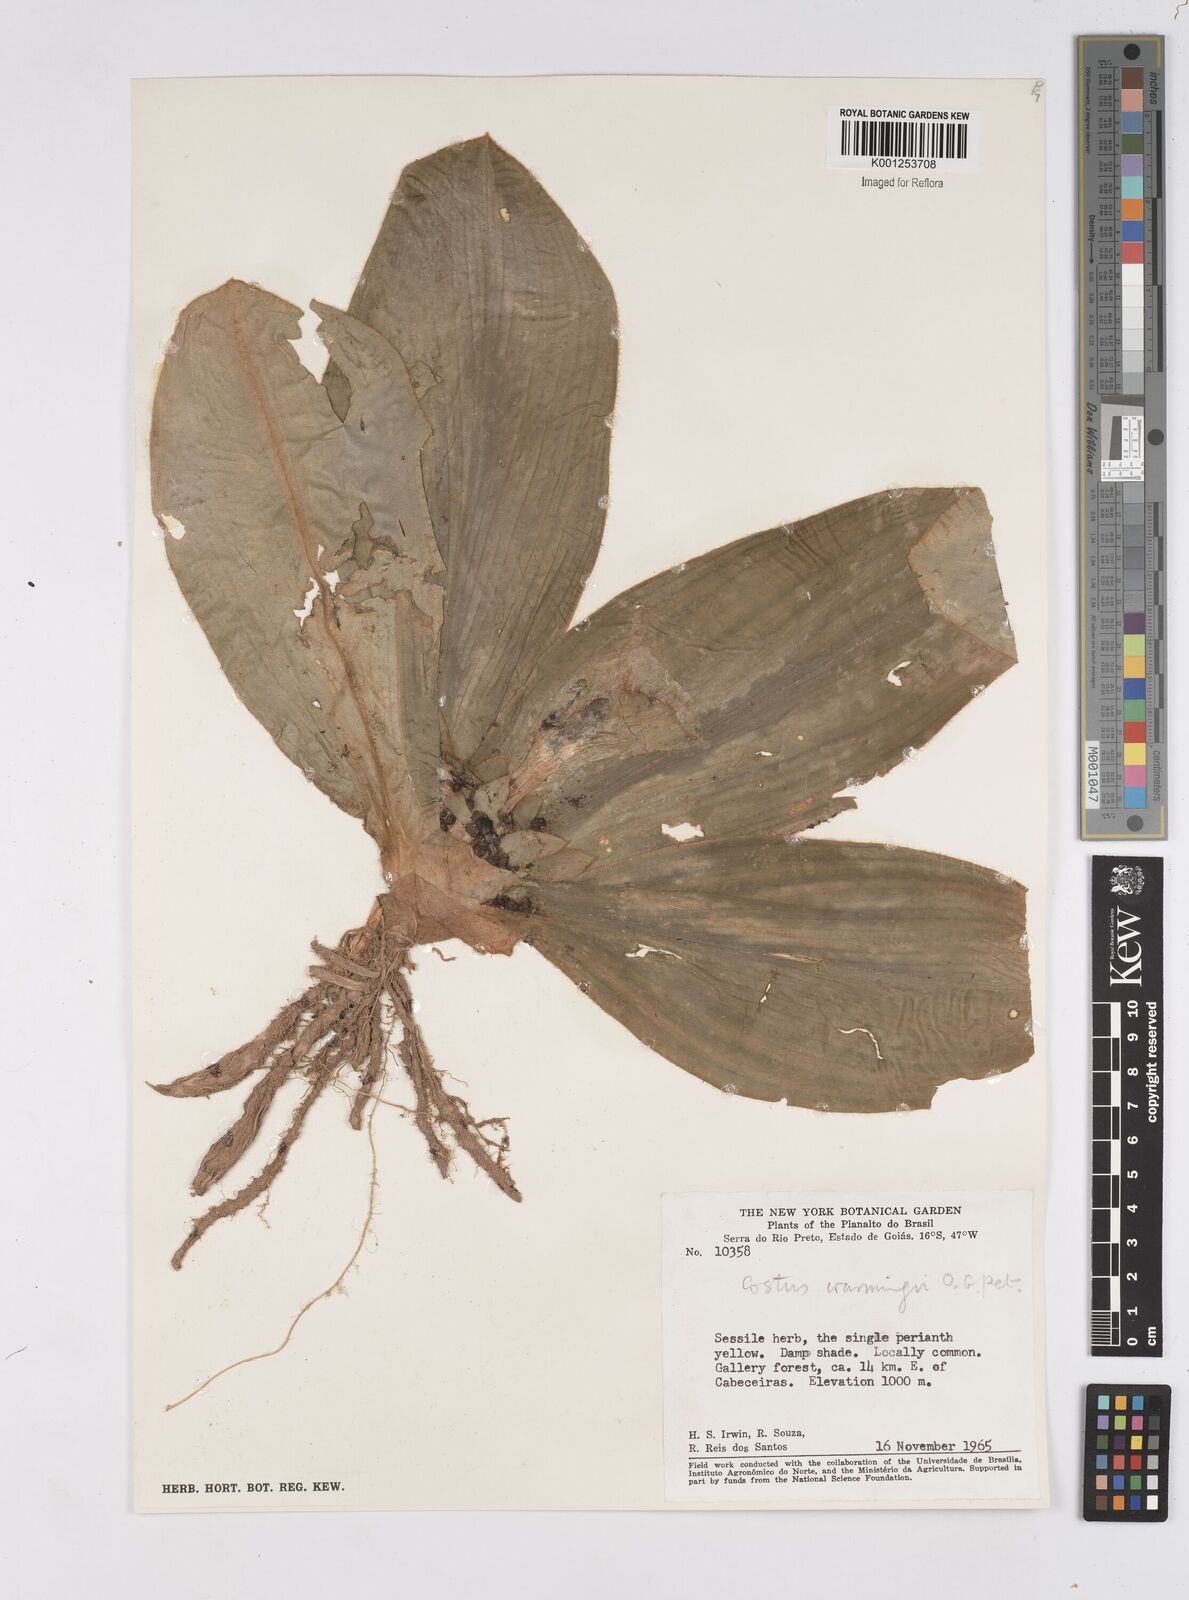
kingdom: Plantae
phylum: Tracheophyta
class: Liliopsida
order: Zingiberales
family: Costaceae
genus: Chamaecostus
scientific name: Chamaecostus subsessilis
